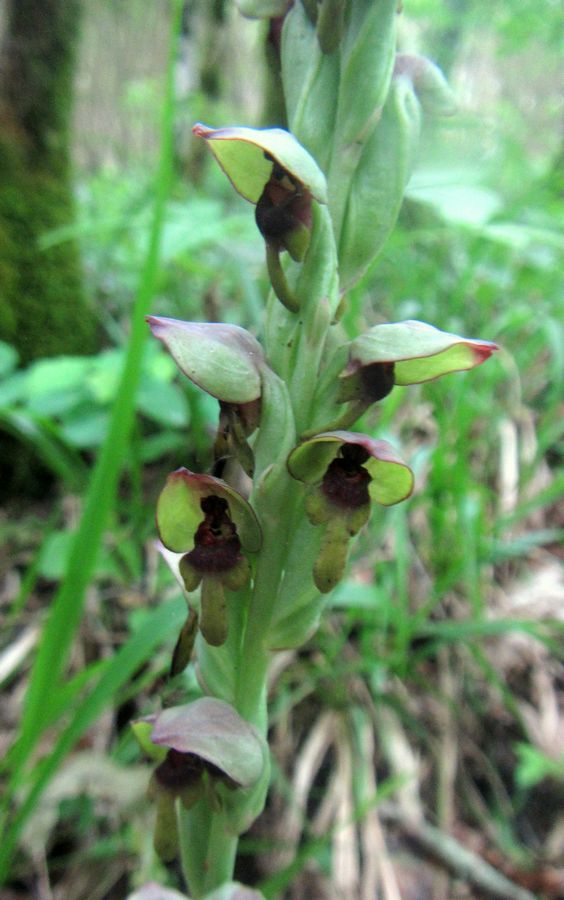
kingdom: Plantae
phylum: Tracheophyta
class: Liliopsida
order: Asparagales
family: Orchidaceae
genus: Steveniella
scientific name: Steveniella satyrioides
